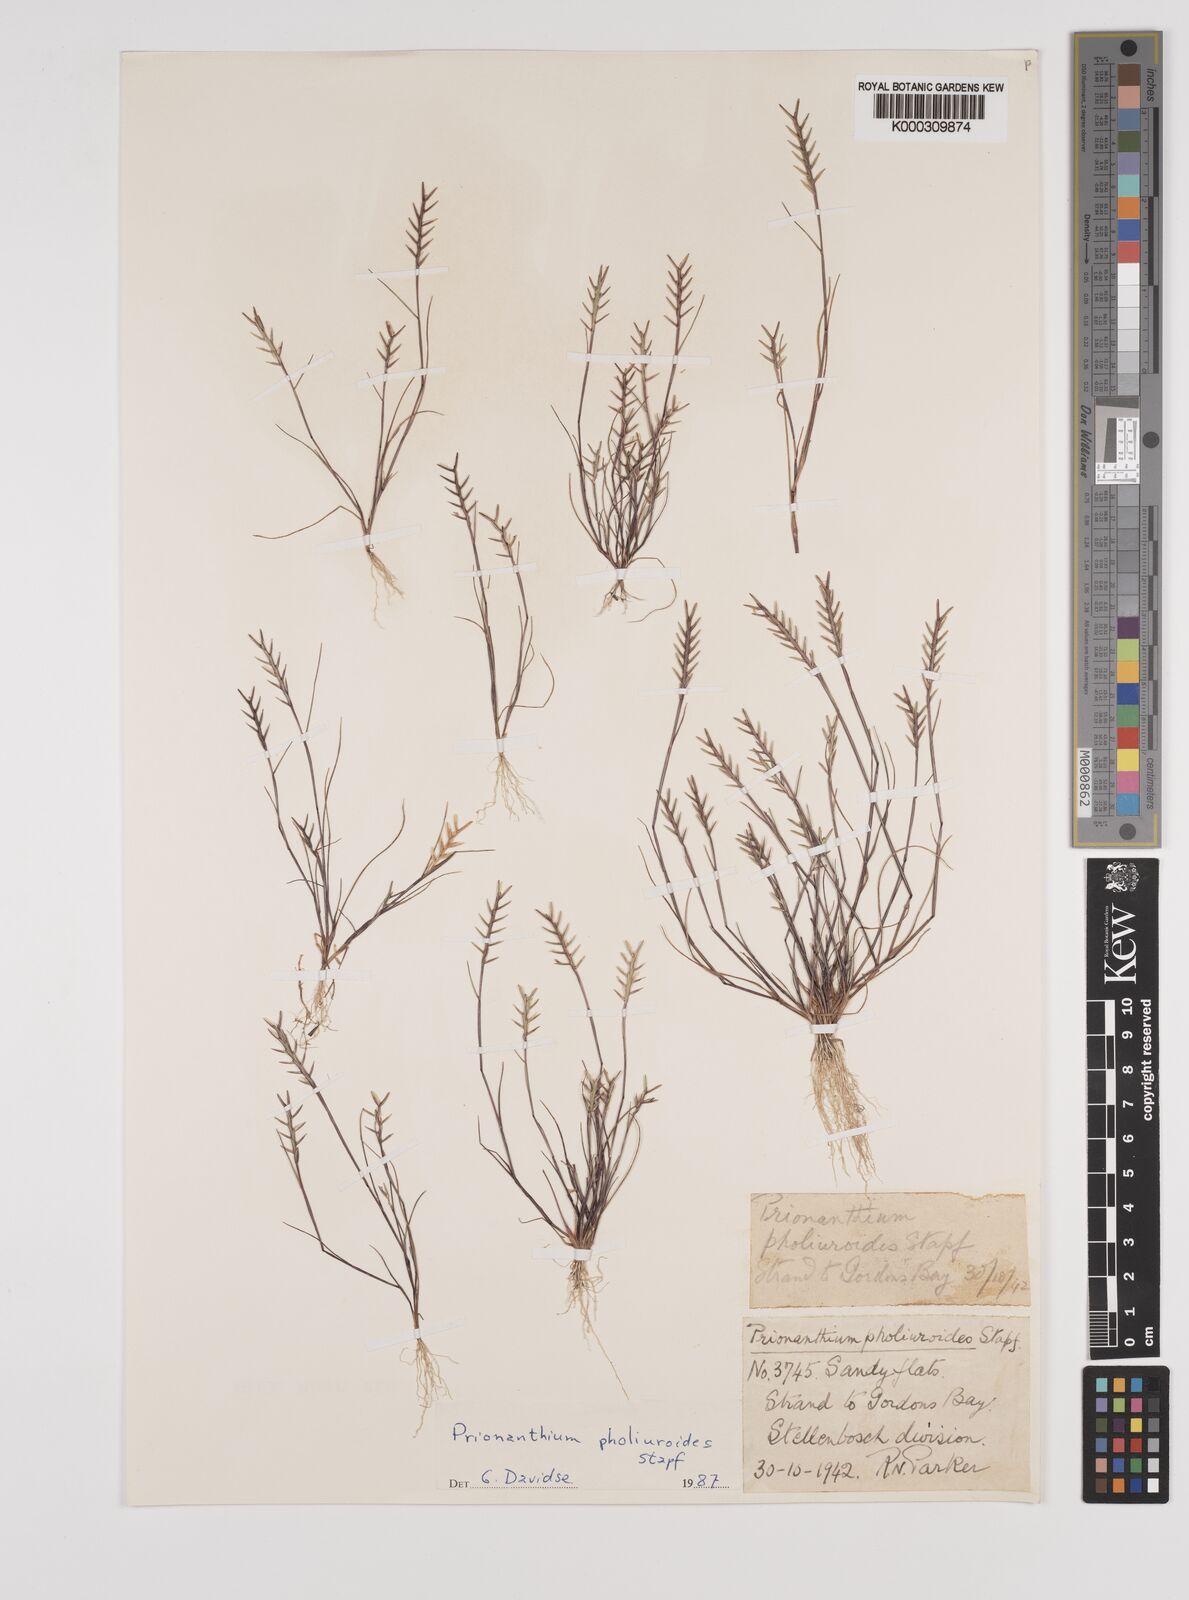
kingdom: Plantae
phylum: Tracheophyta
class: Liliopsida
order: Poales
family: Poaceae
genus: Pentameris
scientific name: Pentameris pholiuroides
